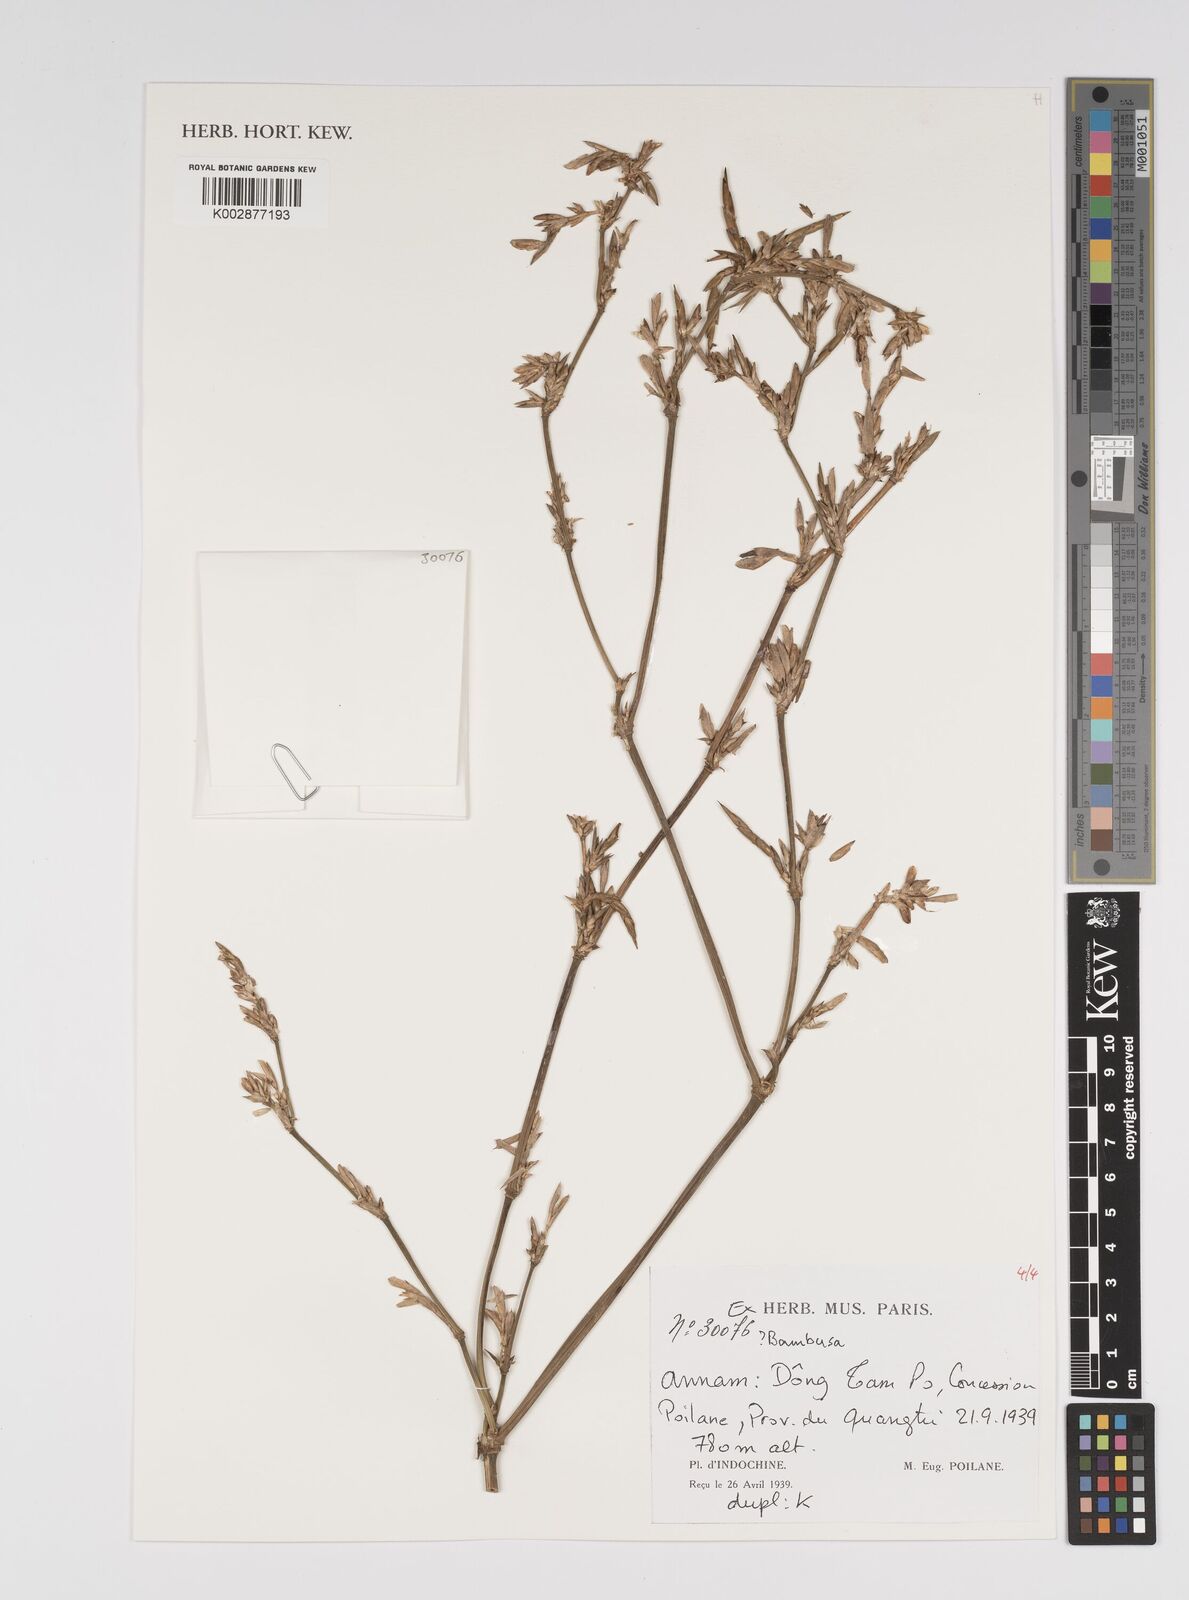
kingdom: Plantae
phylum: Tracheophyta
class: Liliopsida
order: Poales
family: Poaceae
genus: Bambusa
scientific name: Bambusa
